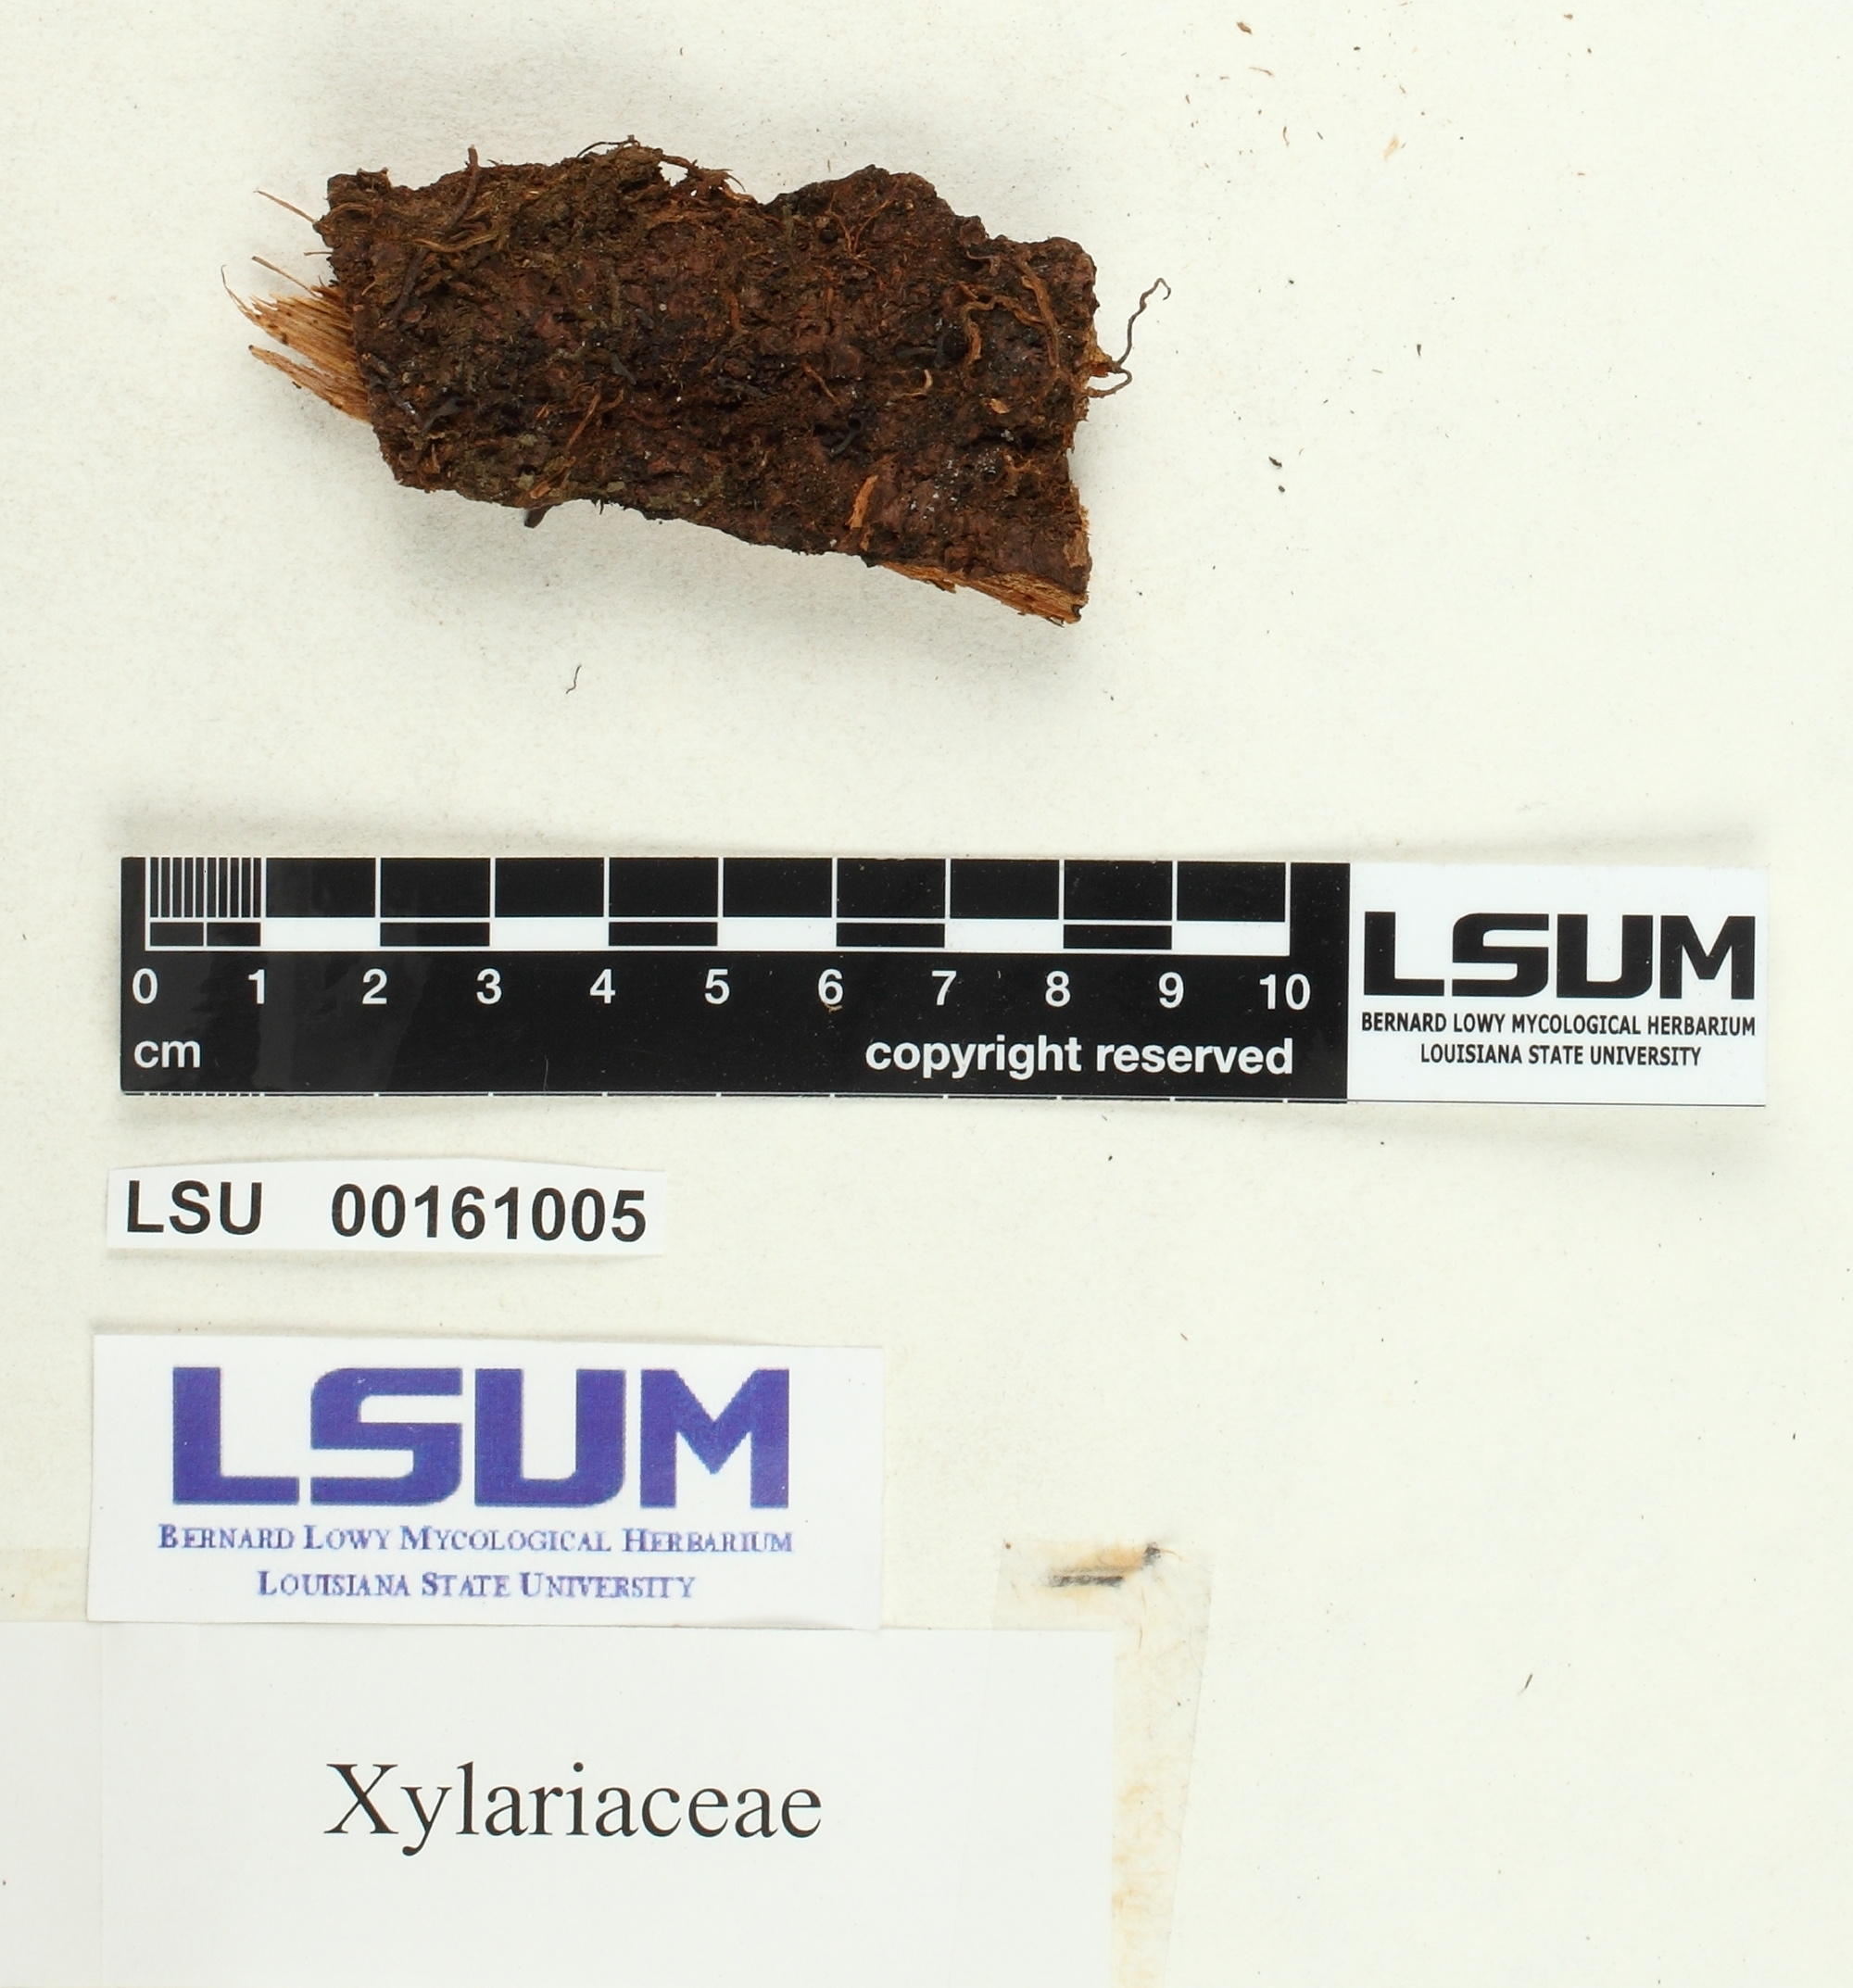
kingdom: Fungi
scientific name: Fungi
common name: Fungi
